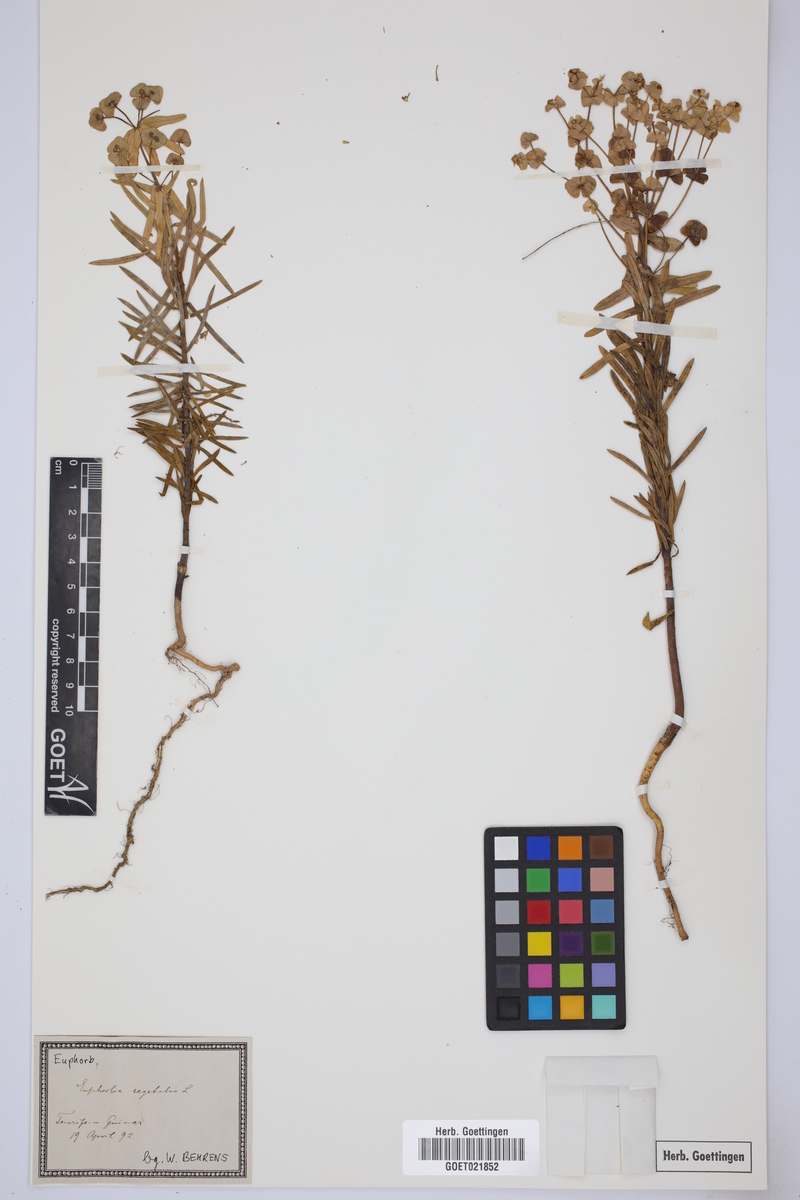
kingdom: Plantae
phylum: Tracheophyta
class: Magnoliopsida
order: Malpighiales
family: Euphorbiaceae
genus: Euphorbia
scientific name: Euphorbia segetalis
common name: Corn spurge
